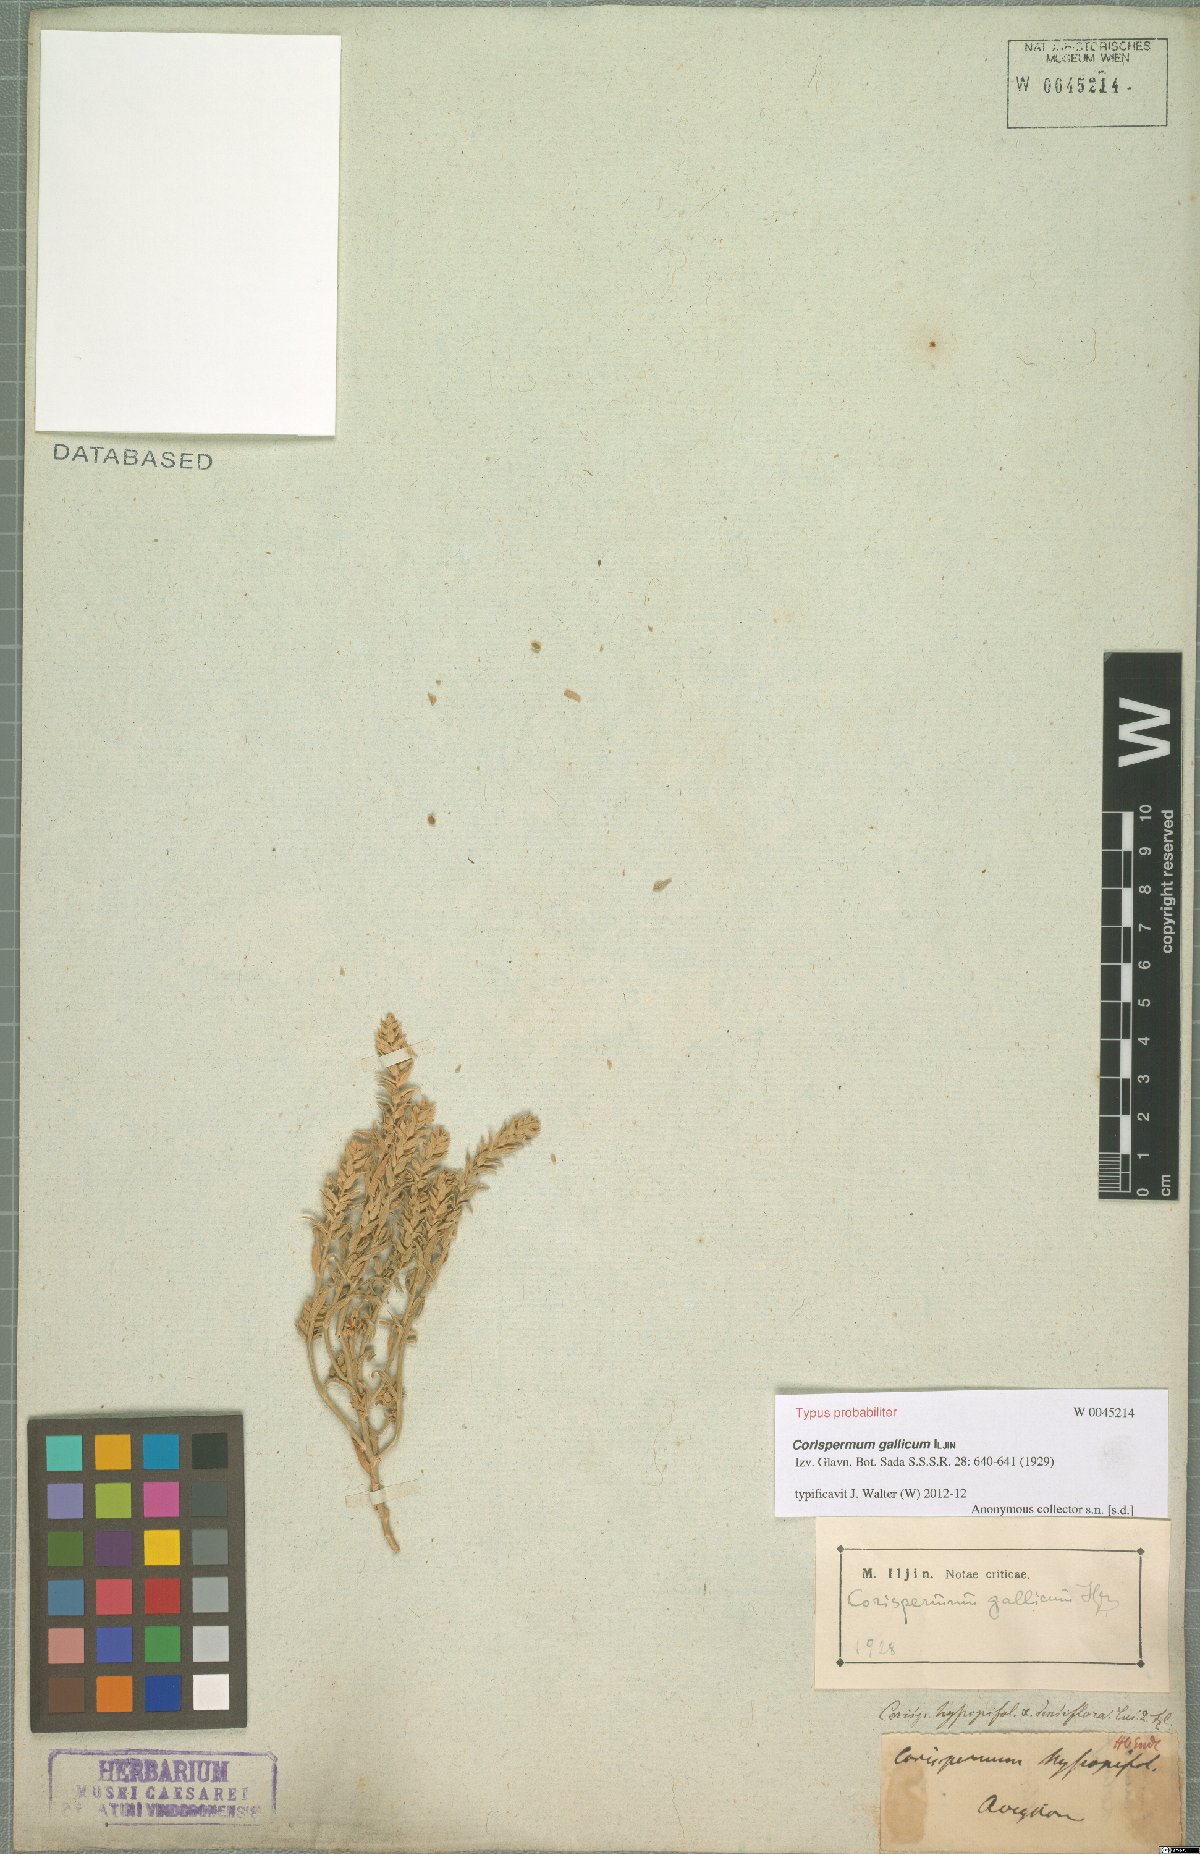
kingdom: Plantae
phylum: Tracheophyta
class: Magnoliopsida
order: Caryophyllales
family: Amaranthaceae
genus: Corispermum
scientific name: Corispermum gallicum
